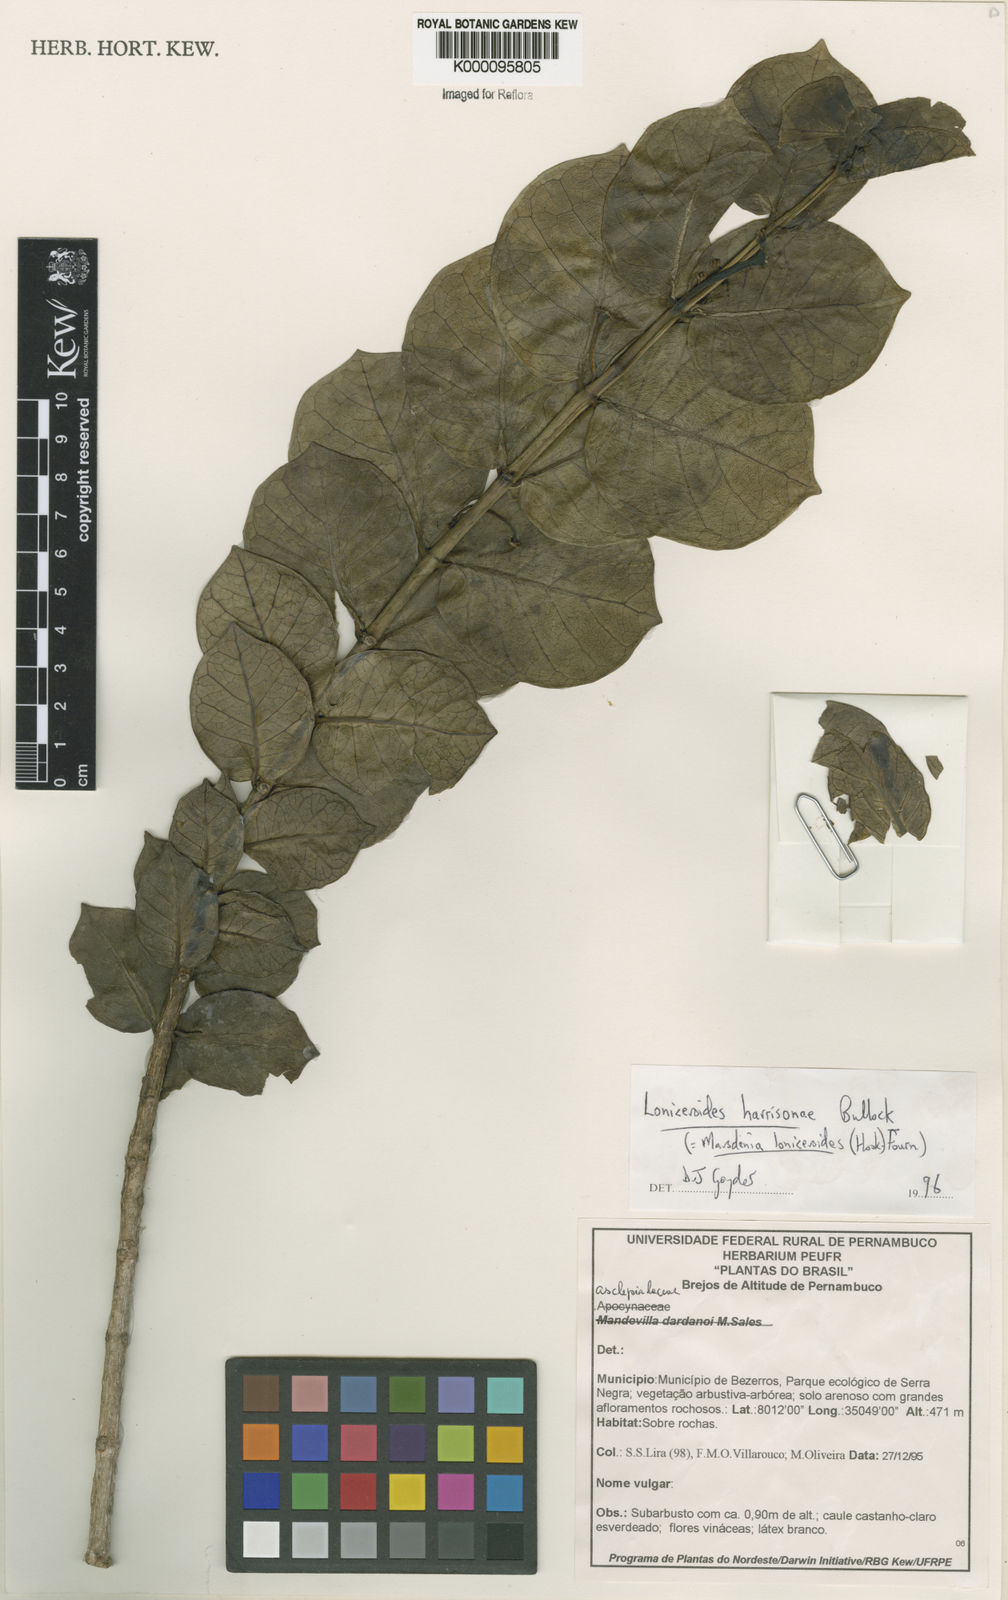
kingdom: Plantae
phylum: Tracheophyta
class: Magnoliopsida
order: Gentianales
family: Apocynaceae
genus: Ruehssia
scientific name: Ruehssia loniceroides
